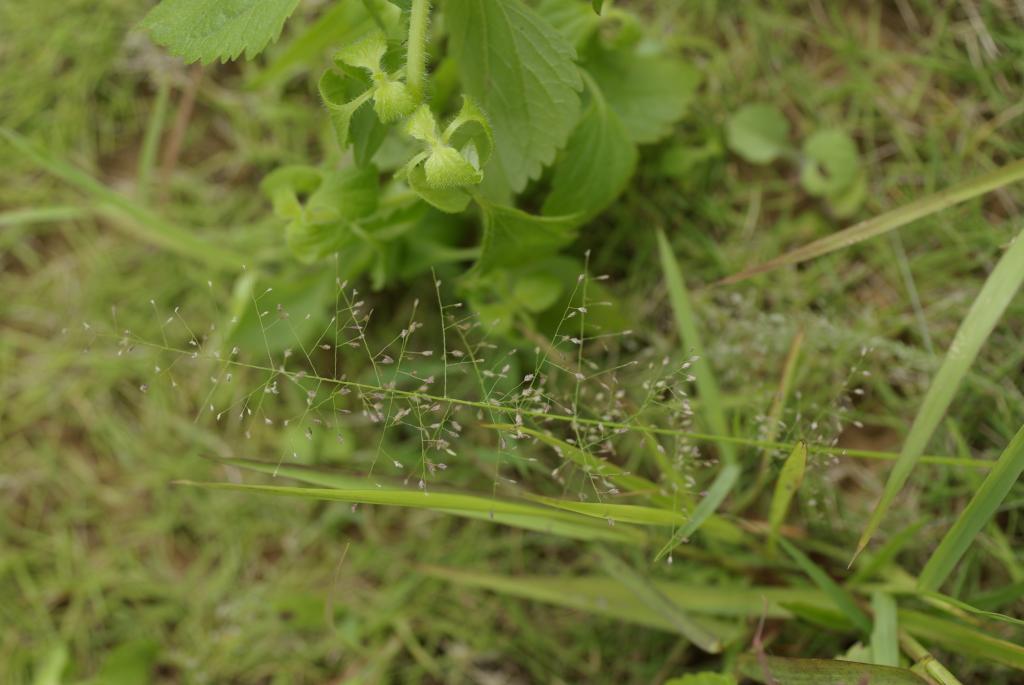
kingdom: Plantae
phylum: Tracheophyta
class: Liliopsida
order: Poales
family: Poaceae
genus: Eragrostis
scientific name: Eragrostis viscosa
